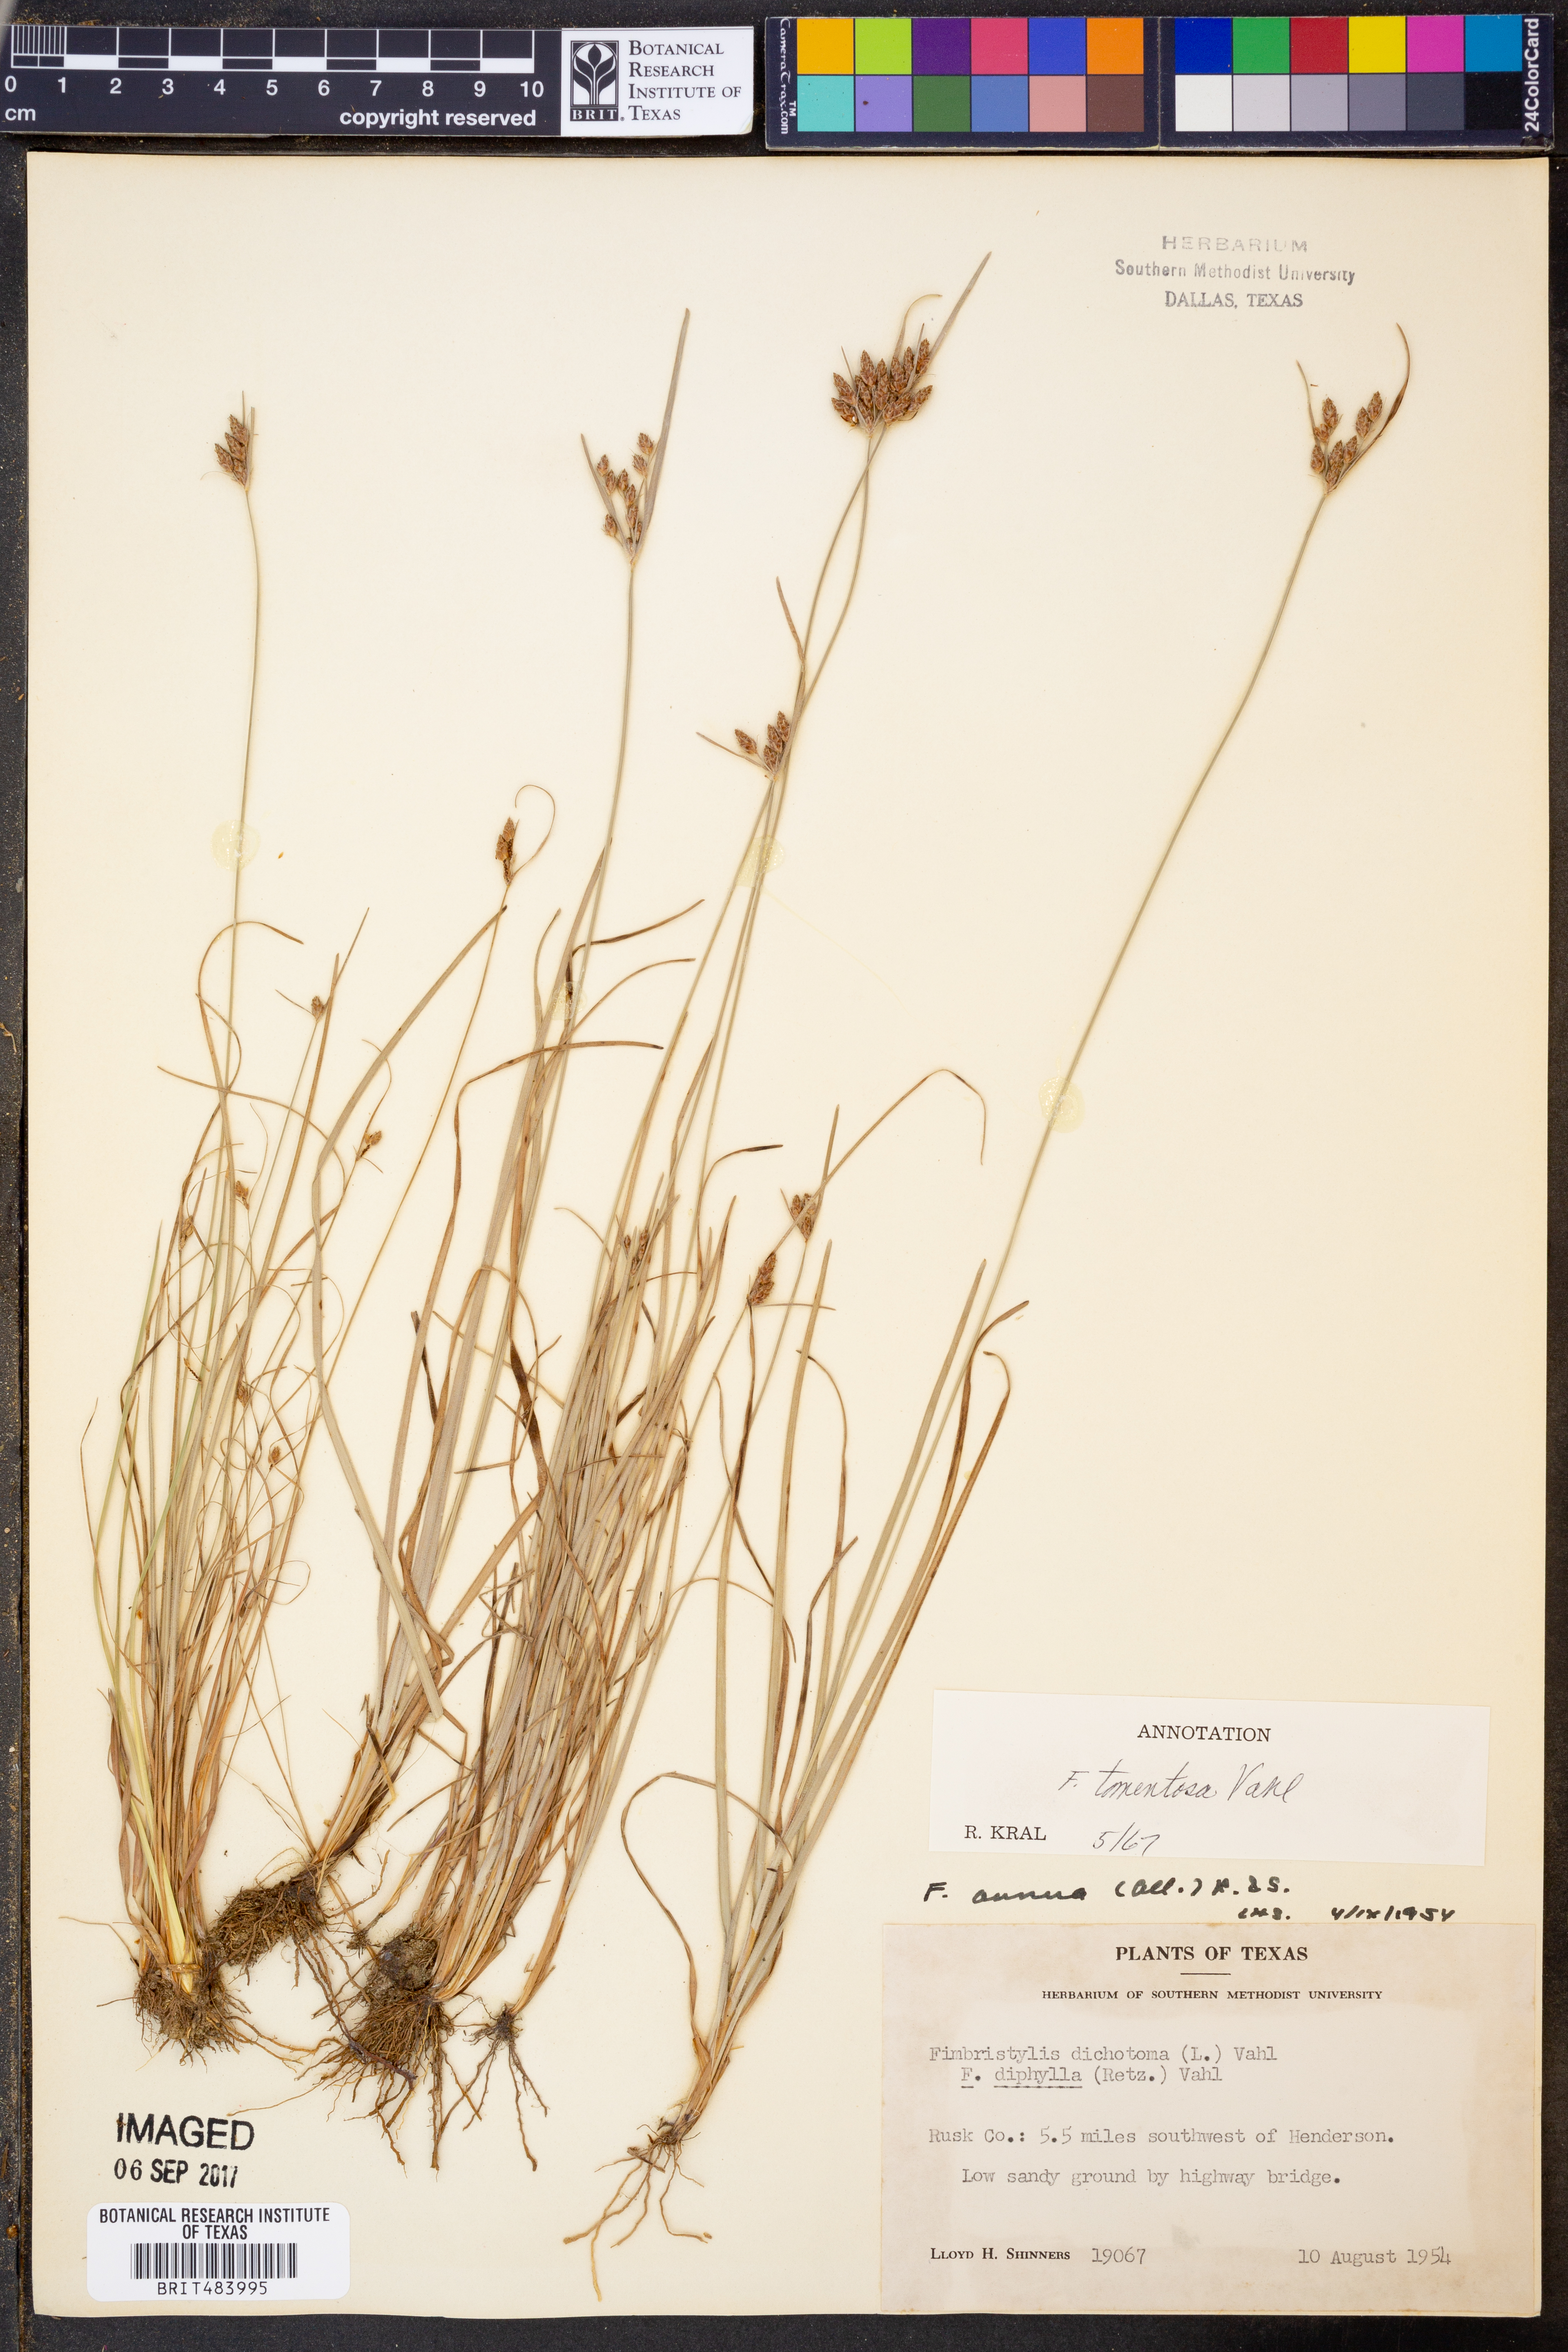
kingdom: Plantae
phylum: Tracheophyta
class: Liliopsida
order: Poales
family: Cyperaceae
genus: Fimbristylis
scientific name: Fimbristylis dichotoma
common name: Forked fimbry
